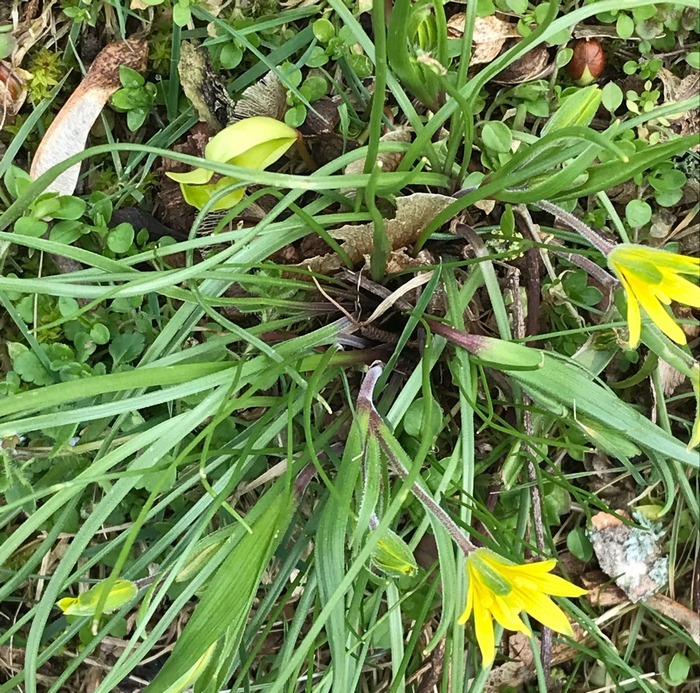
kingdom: Plantae
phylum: Tracheophyta
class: Liliopsida
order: Liliales
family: Liliaceae
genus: Gagea
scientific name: Gagea villosa
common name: Ager-guldstjerne
